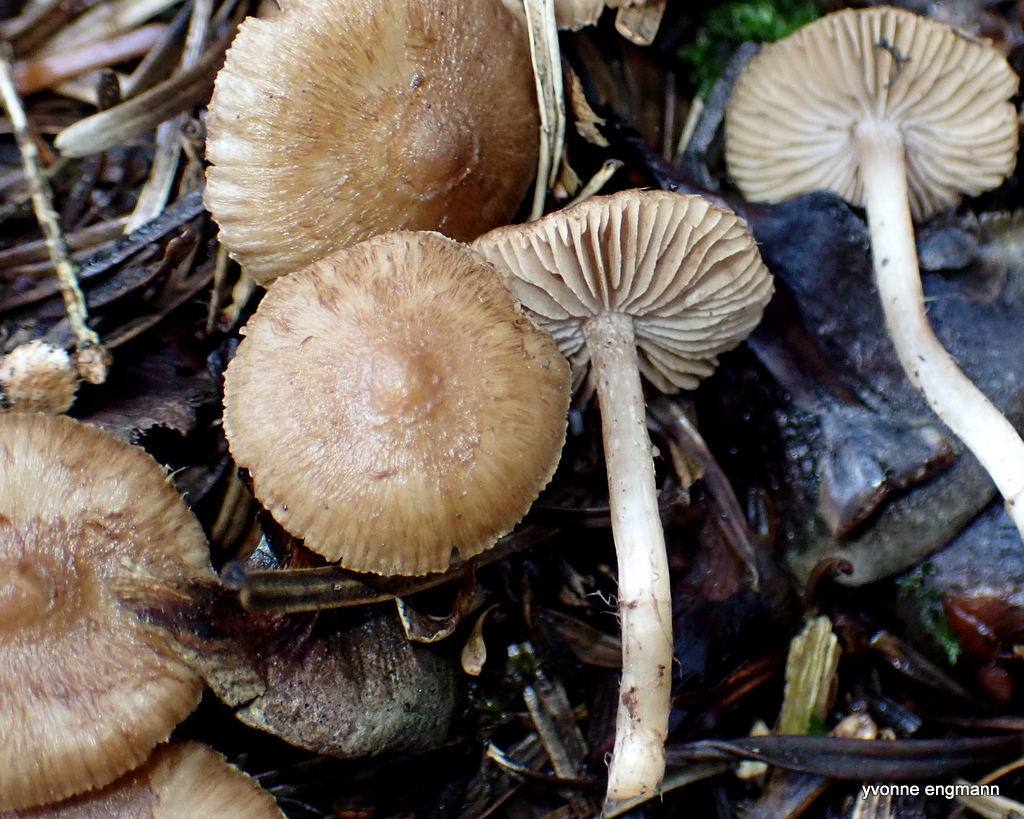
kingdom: Fungi
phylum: Basidiomycota
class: Agaricomycetes
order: Agaricales
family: Inocybaceae
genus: Inocybe
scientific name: Inocybe
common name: trævlhat
